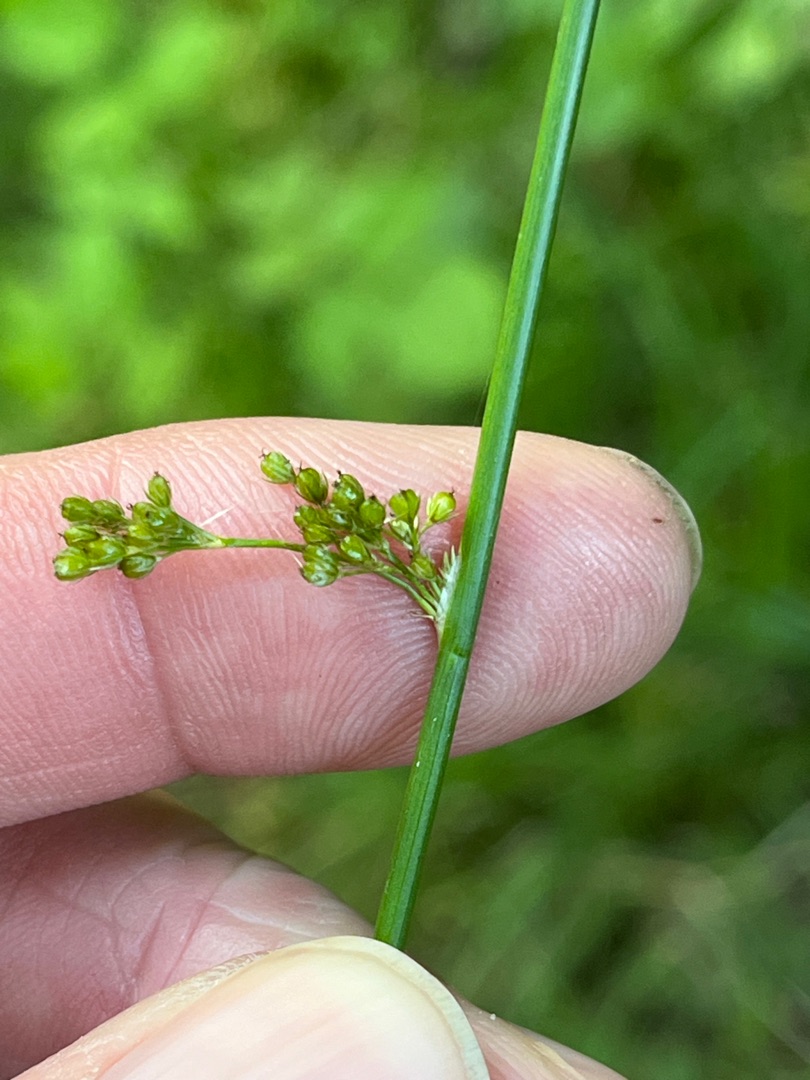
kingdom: Plantae
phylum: Tracheophyta
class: Liliopsida
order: Poales
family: Juncaceae
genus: Juncus
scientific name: Juncus effusus
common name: Lyse-siv
